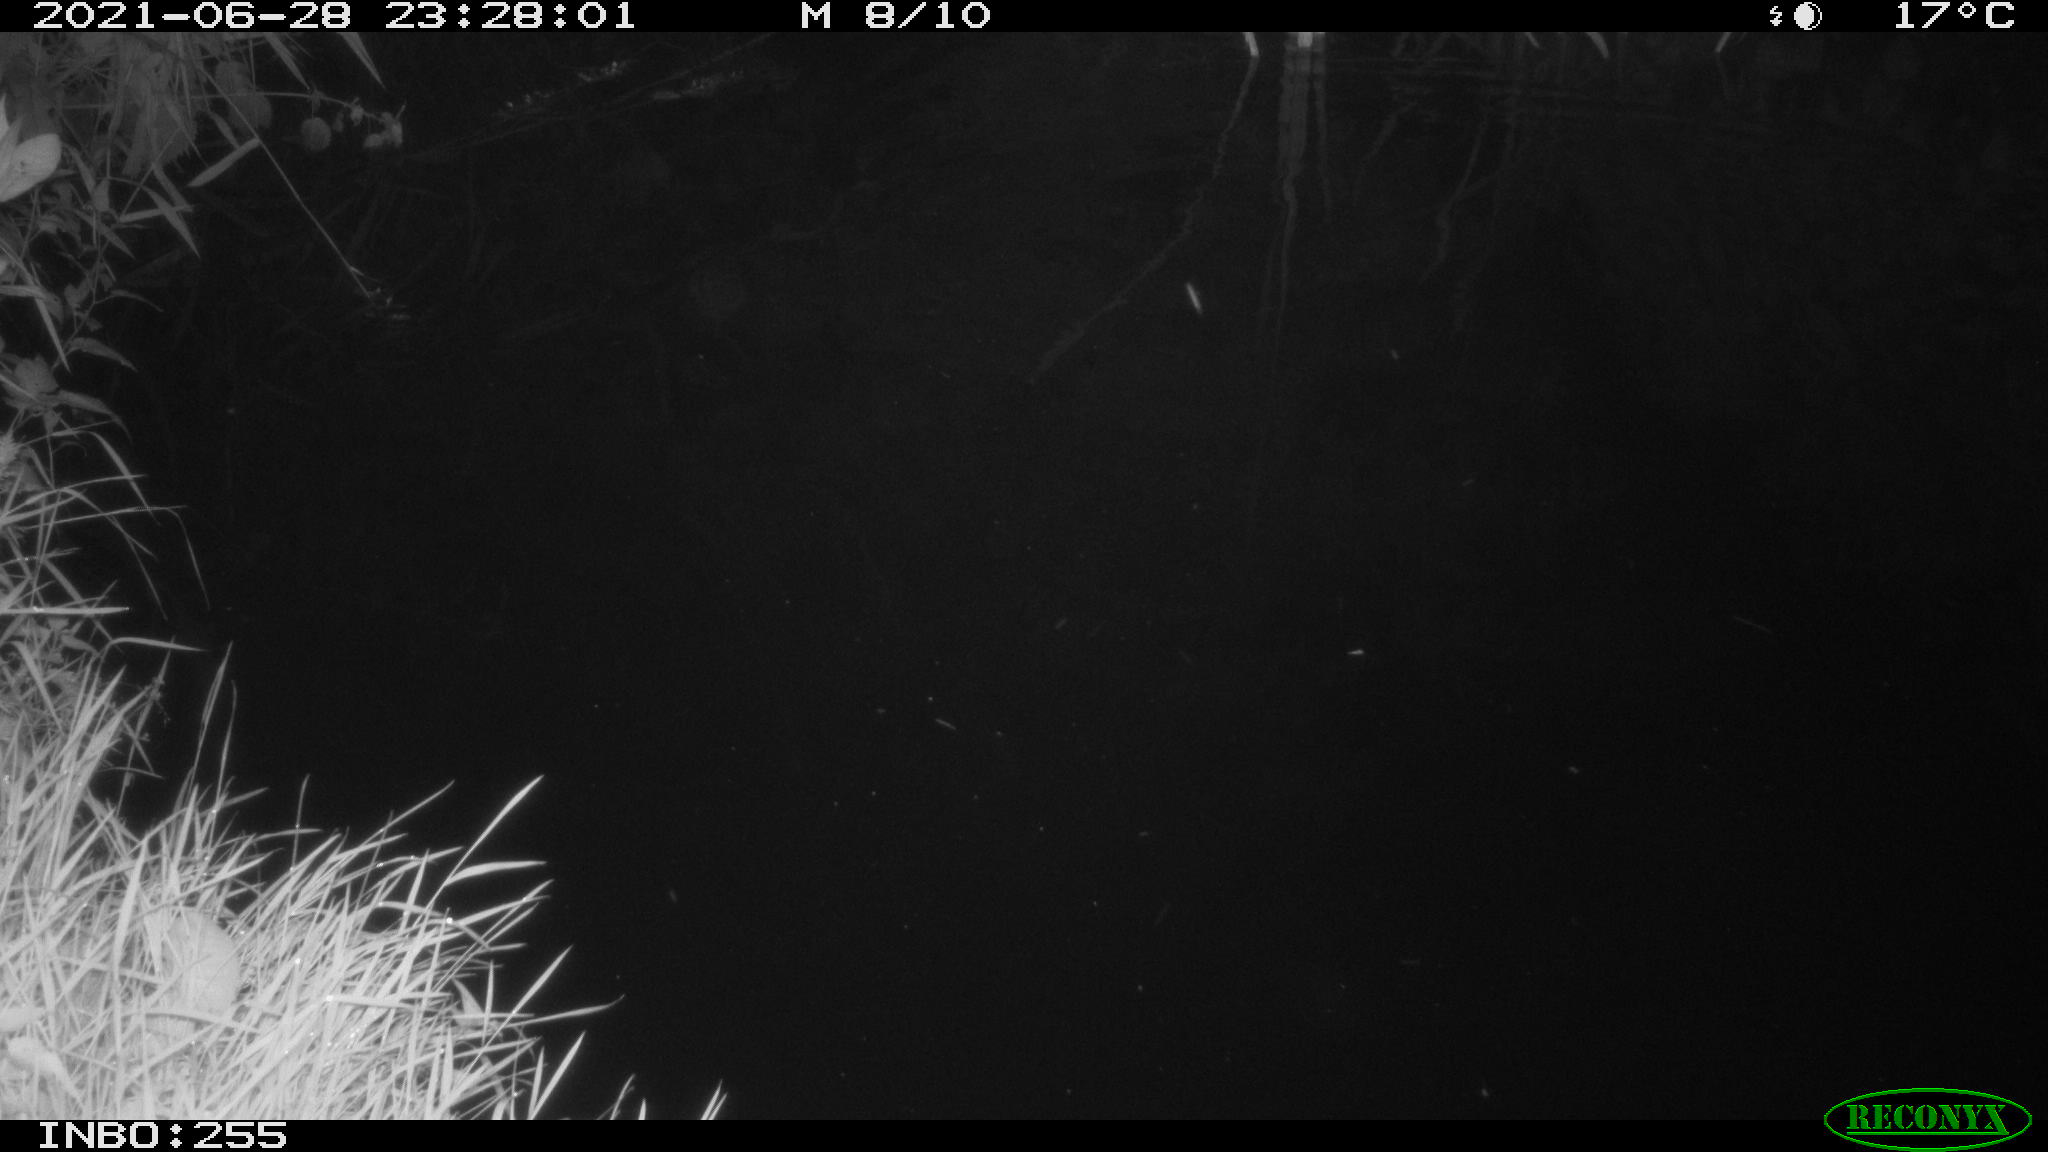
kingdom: Animalia
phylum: Chordata
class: Aves
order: Anseriformes
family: Anatidae
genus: Anas
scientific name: Anas
